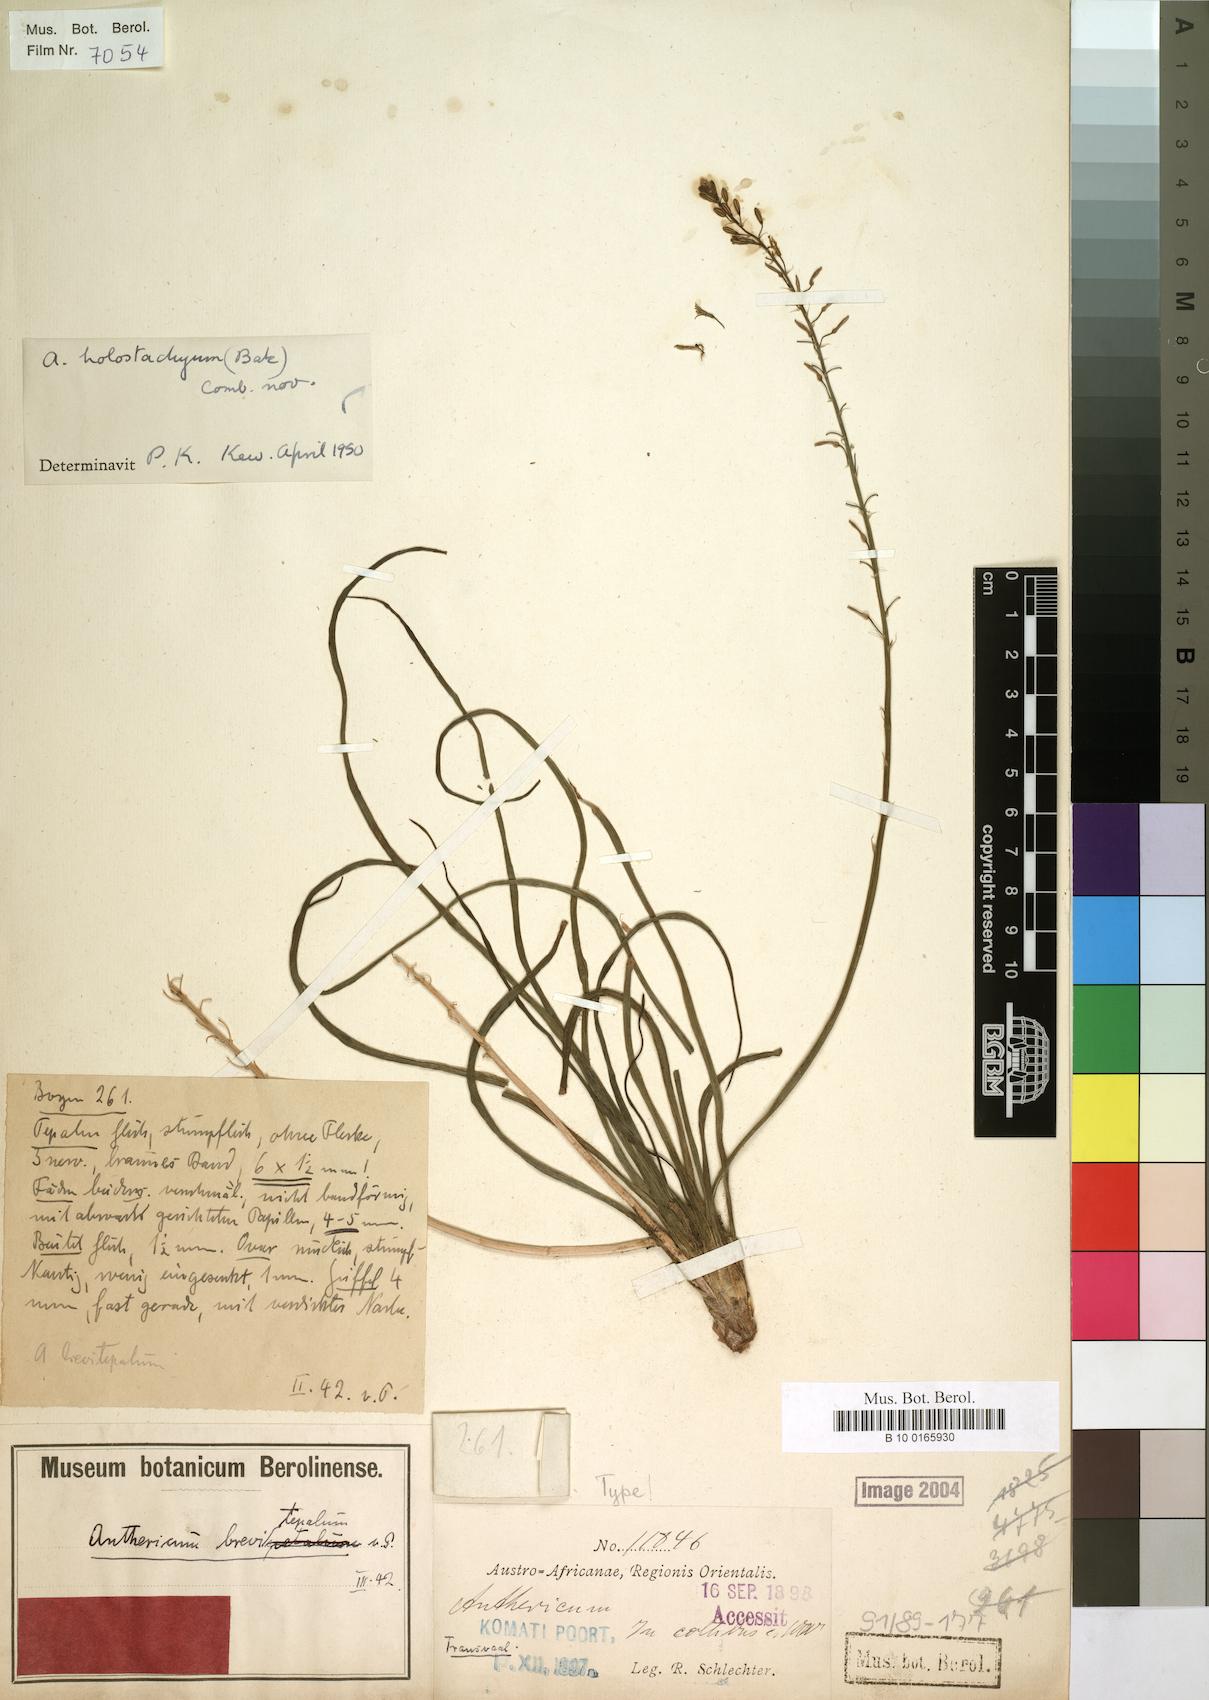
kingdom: Plantae
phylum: Tracheophyta
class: Liliopsida
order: Asparagales
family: Asparagaceae
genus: Anthericum
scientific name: Anthericum
